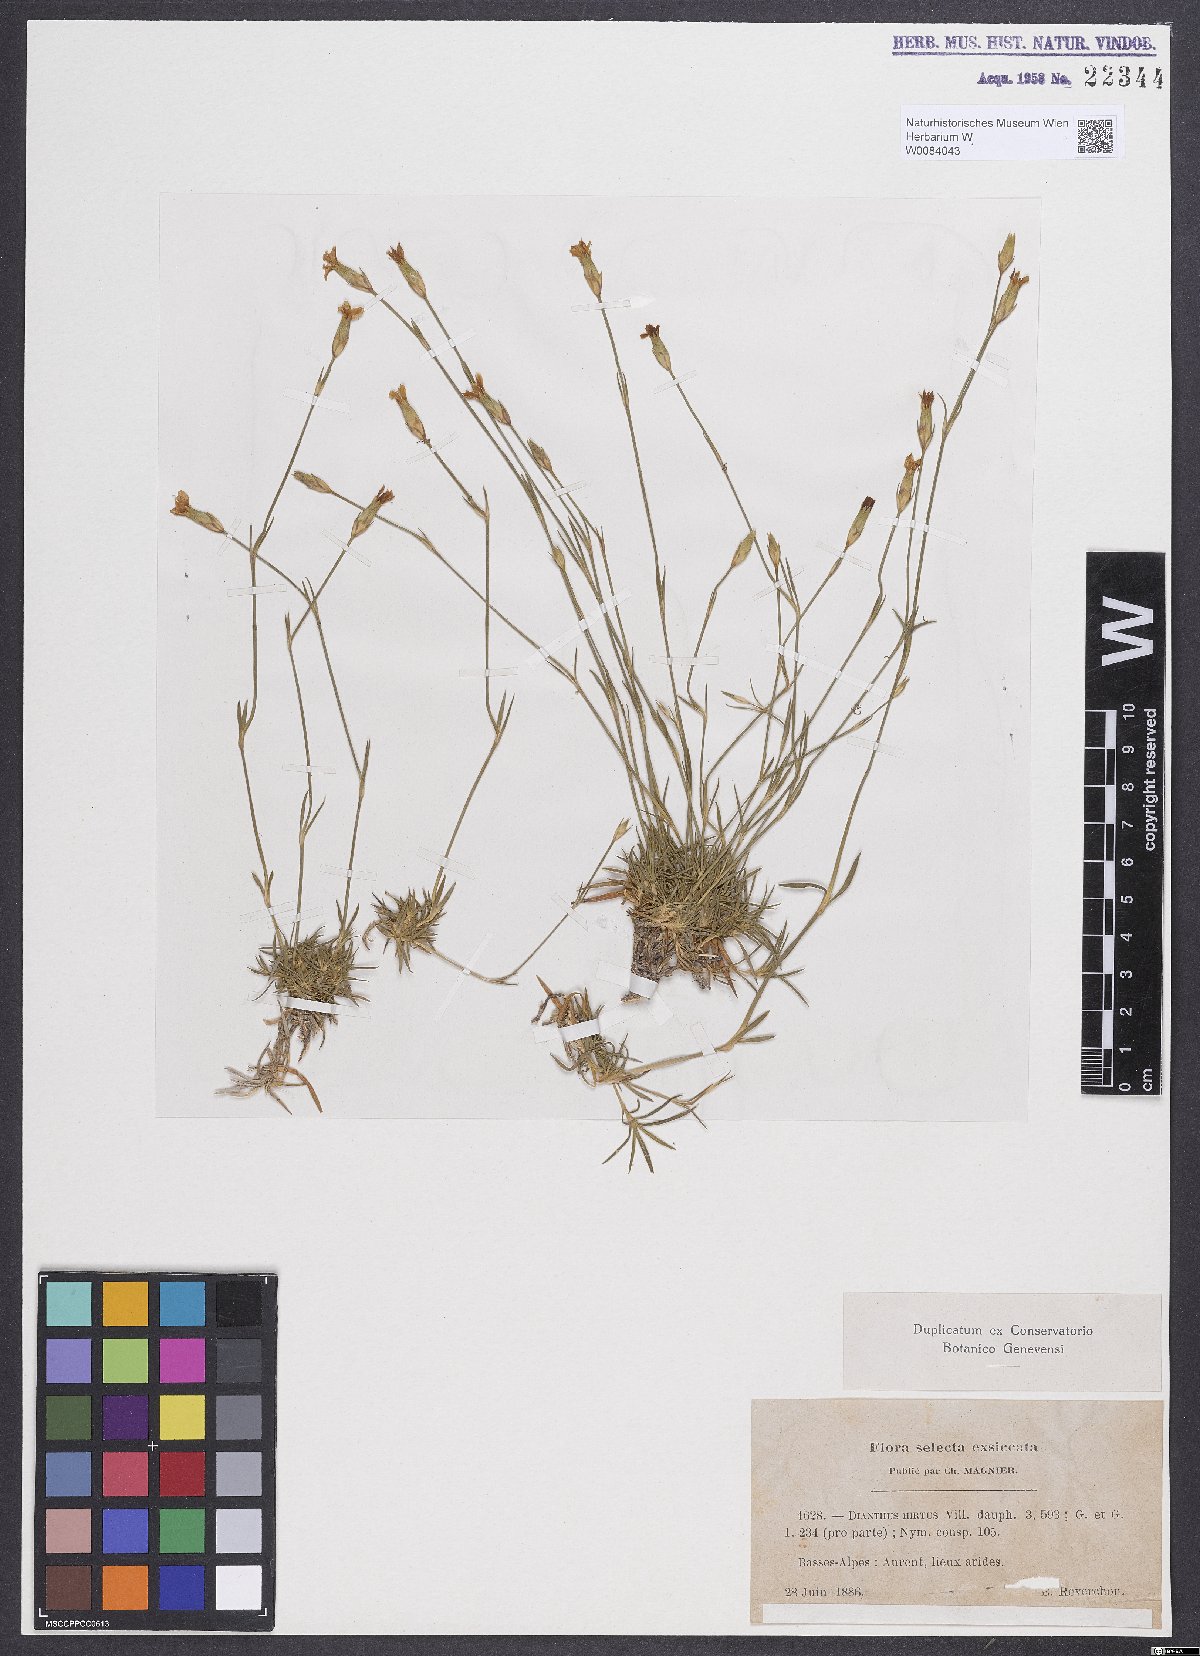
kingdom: Plantae
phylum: Tracheophyta
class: Magnoliopsida
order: Caryophyllales
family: Caryophyllaceae
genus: Dianthus
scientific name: Dianthus scaber
